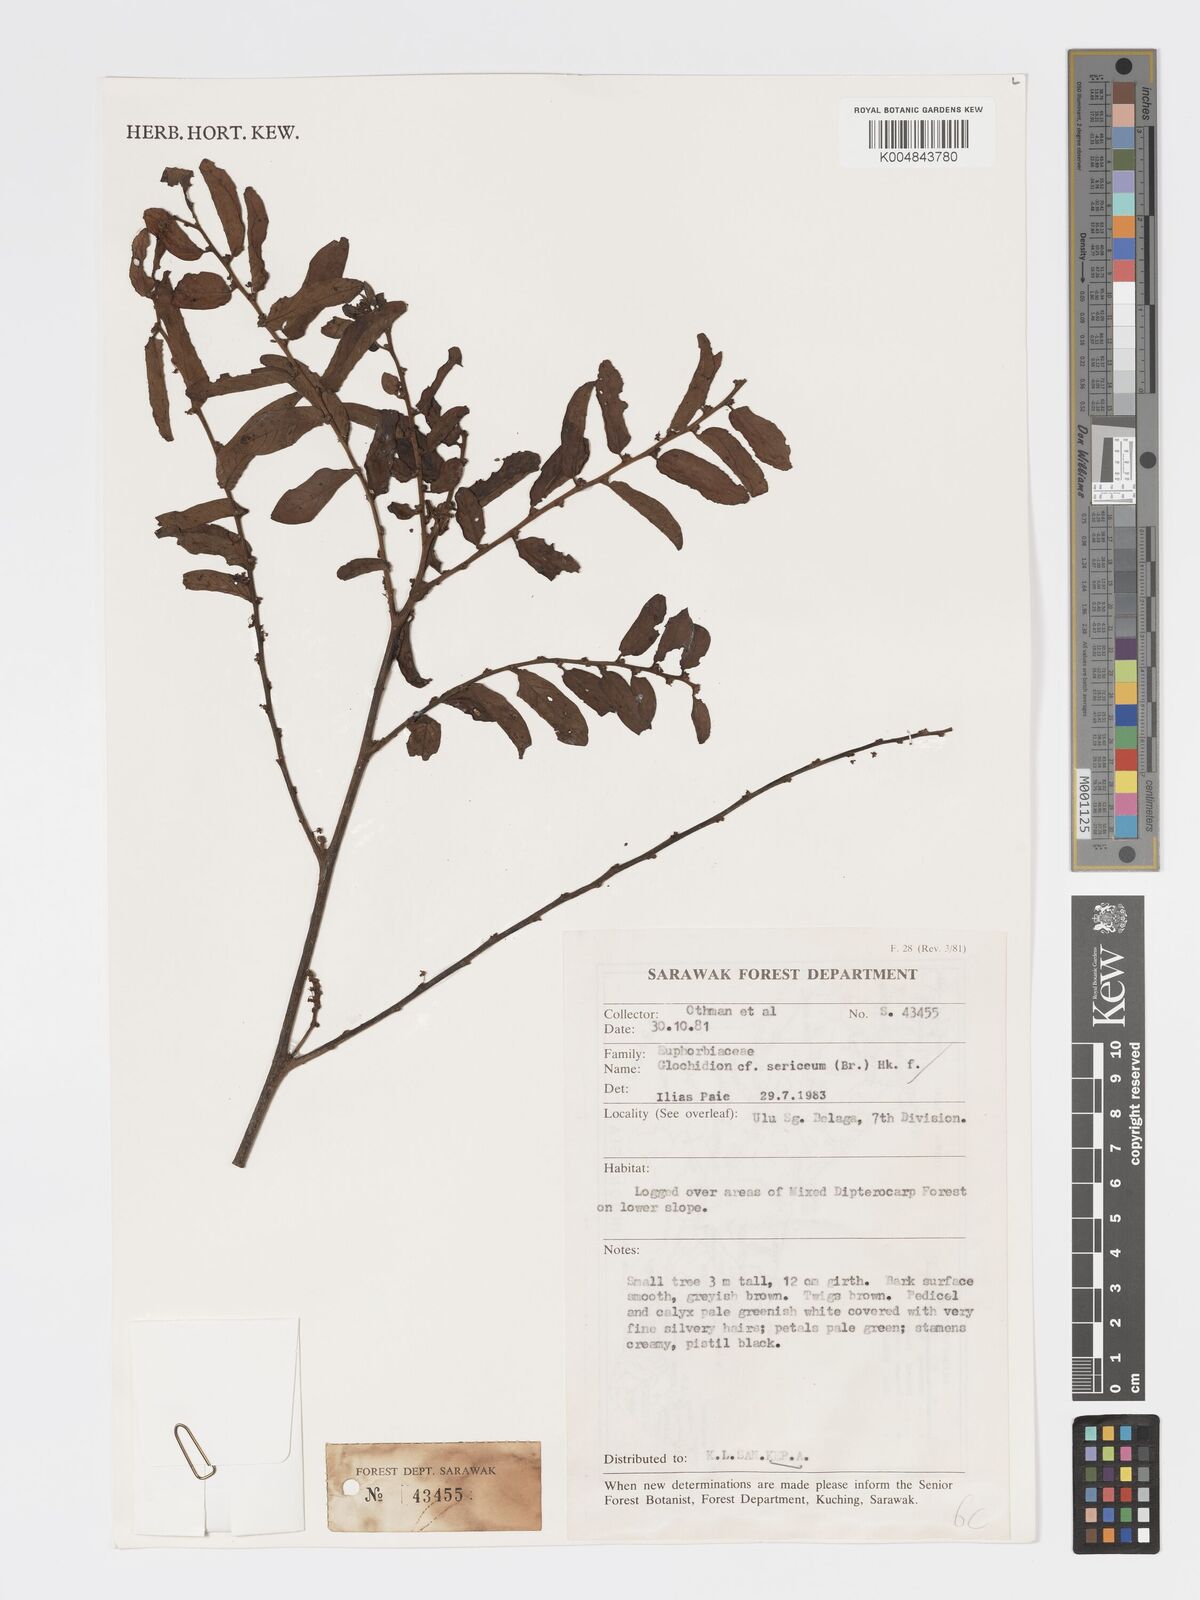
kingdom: Plantae
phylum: Tracheophyta
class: Magnoliopsida
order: Malpighiales
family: Phyllanthaceae
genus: Glochidion
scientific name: Glochidion sericeum
